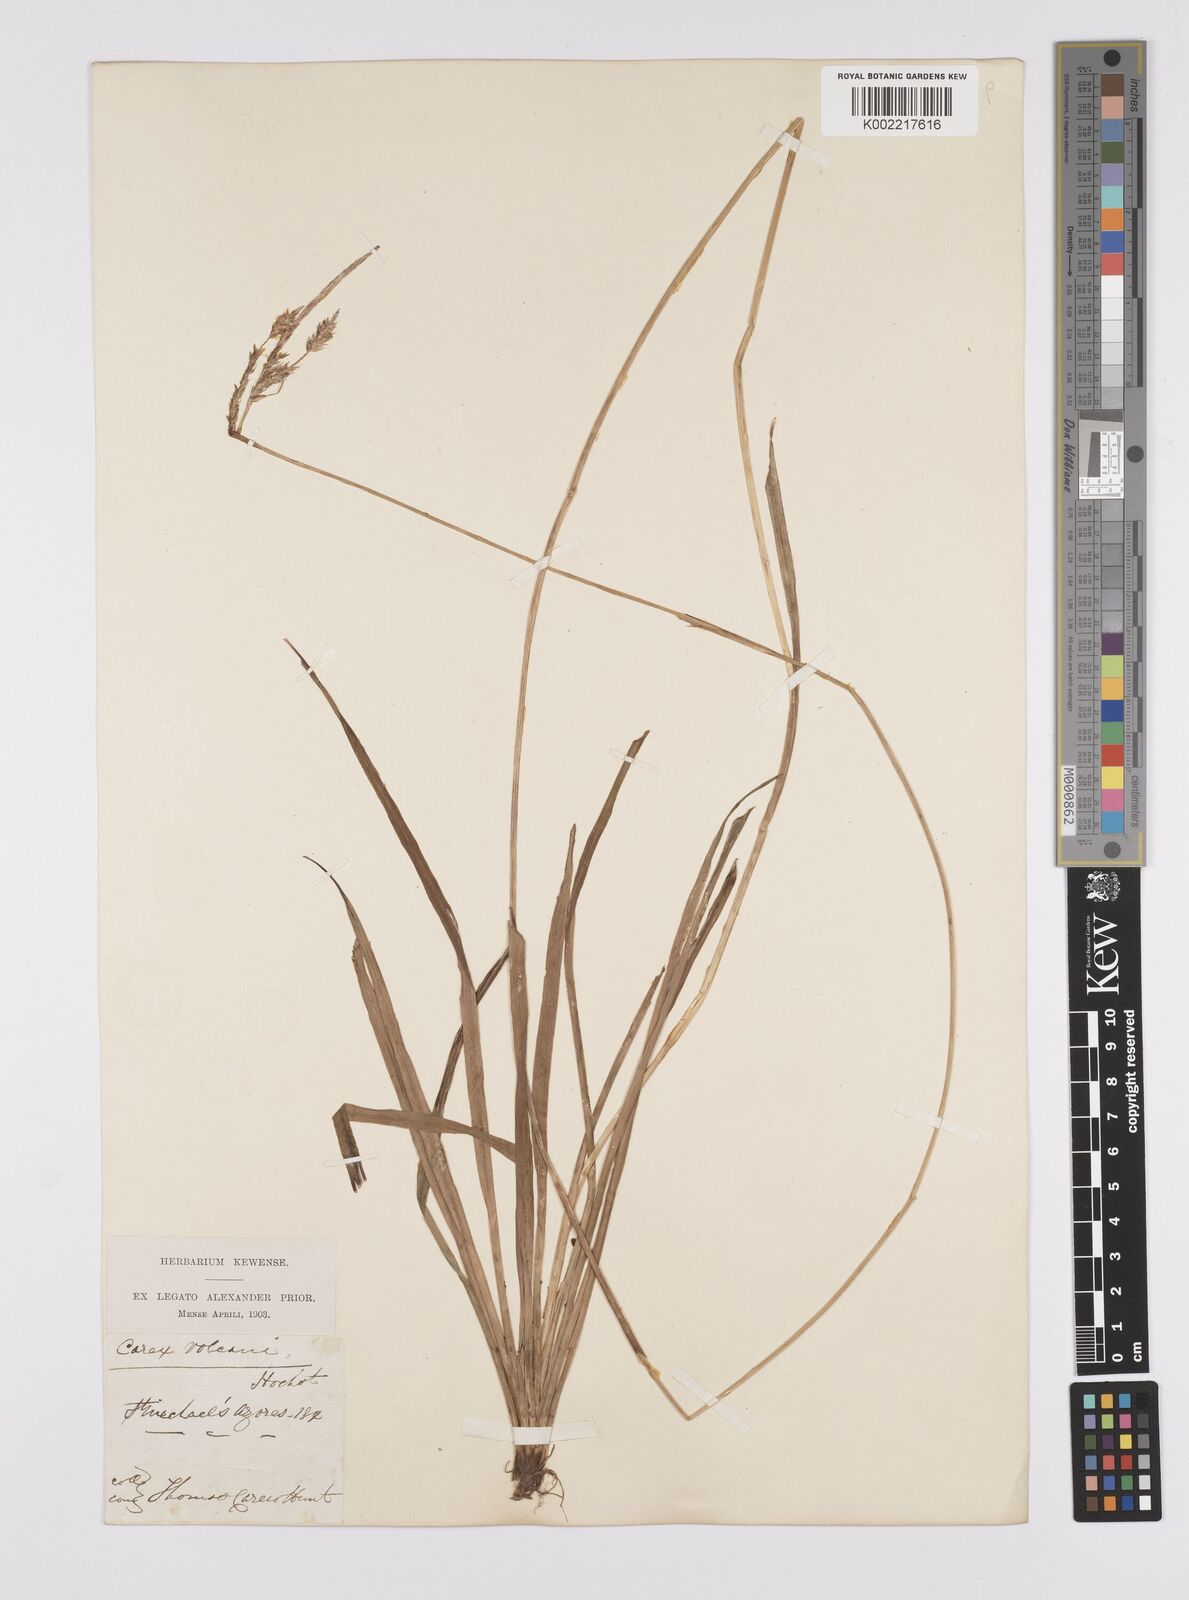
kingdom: Plantae
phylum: Tracheophyta
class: Liliopsida
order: Poales
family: Cyperaceae
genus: Carex
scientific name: Carex vulcani
